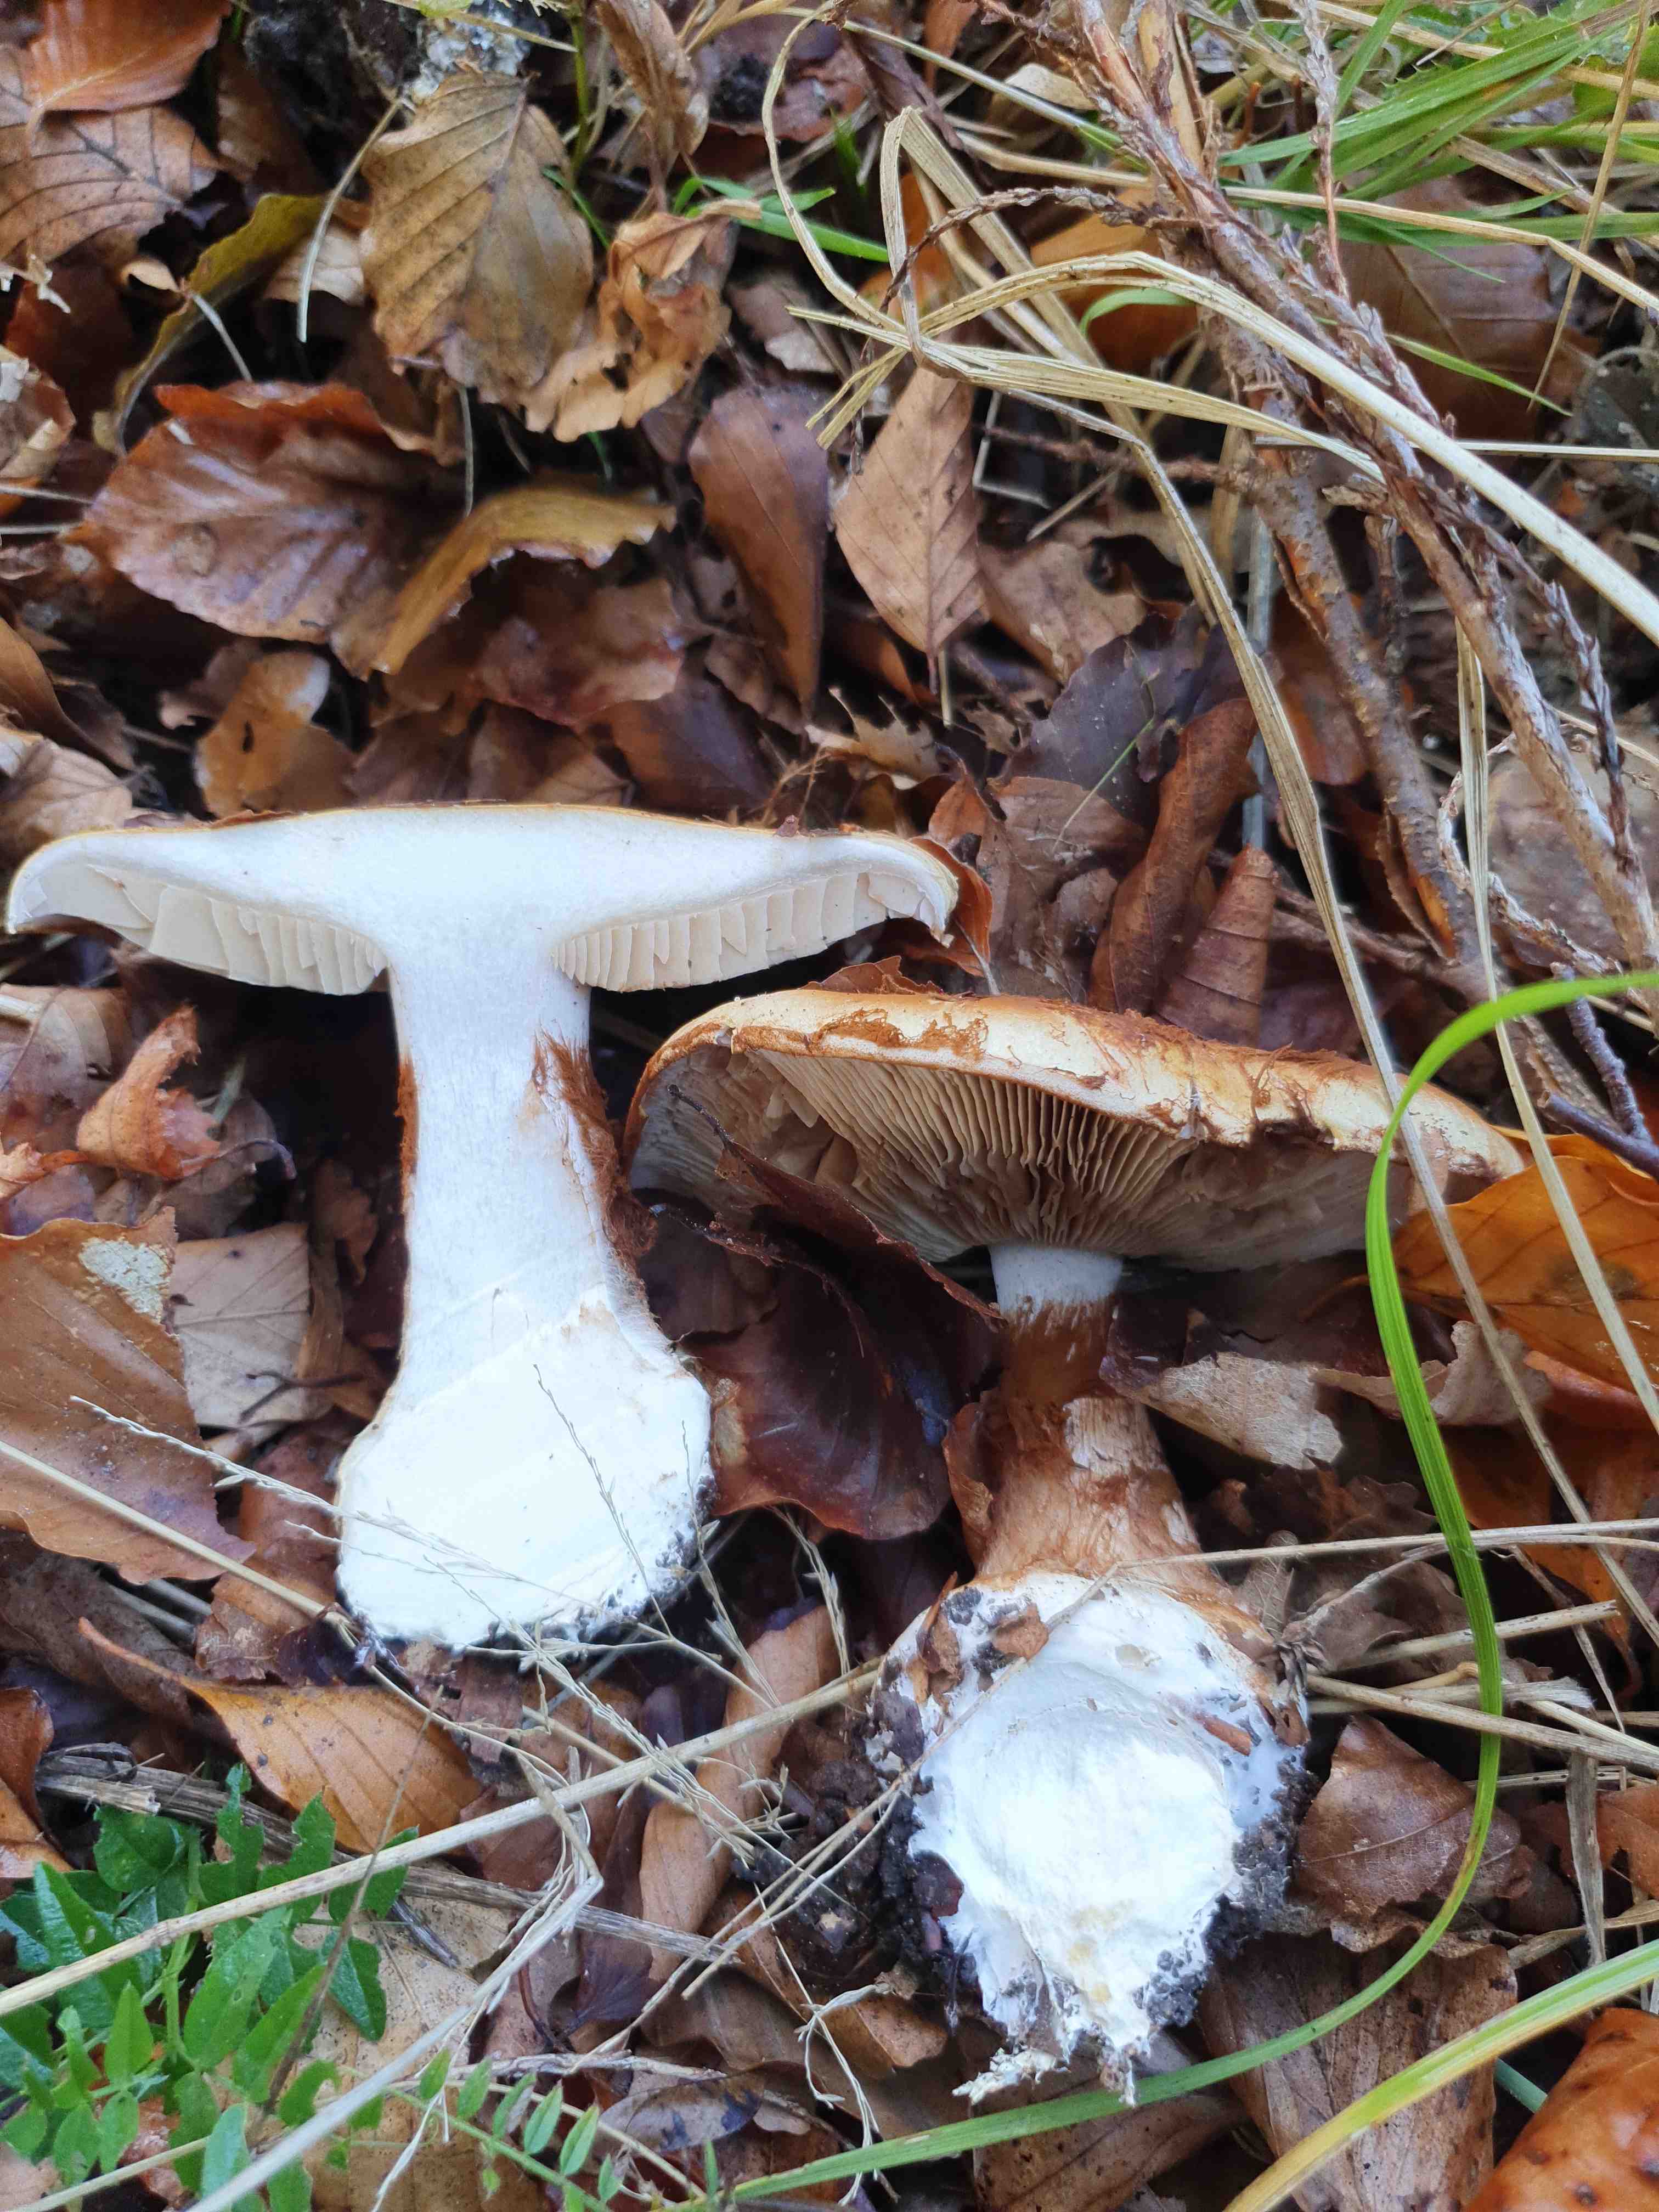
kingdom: Fungi
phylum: Basidiomycota
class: Agaricomycetes
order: Agaricales
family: Cortinariaceae
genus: Cortinarius
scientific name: Cortinarius anserinus
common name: bøge-slørhat
